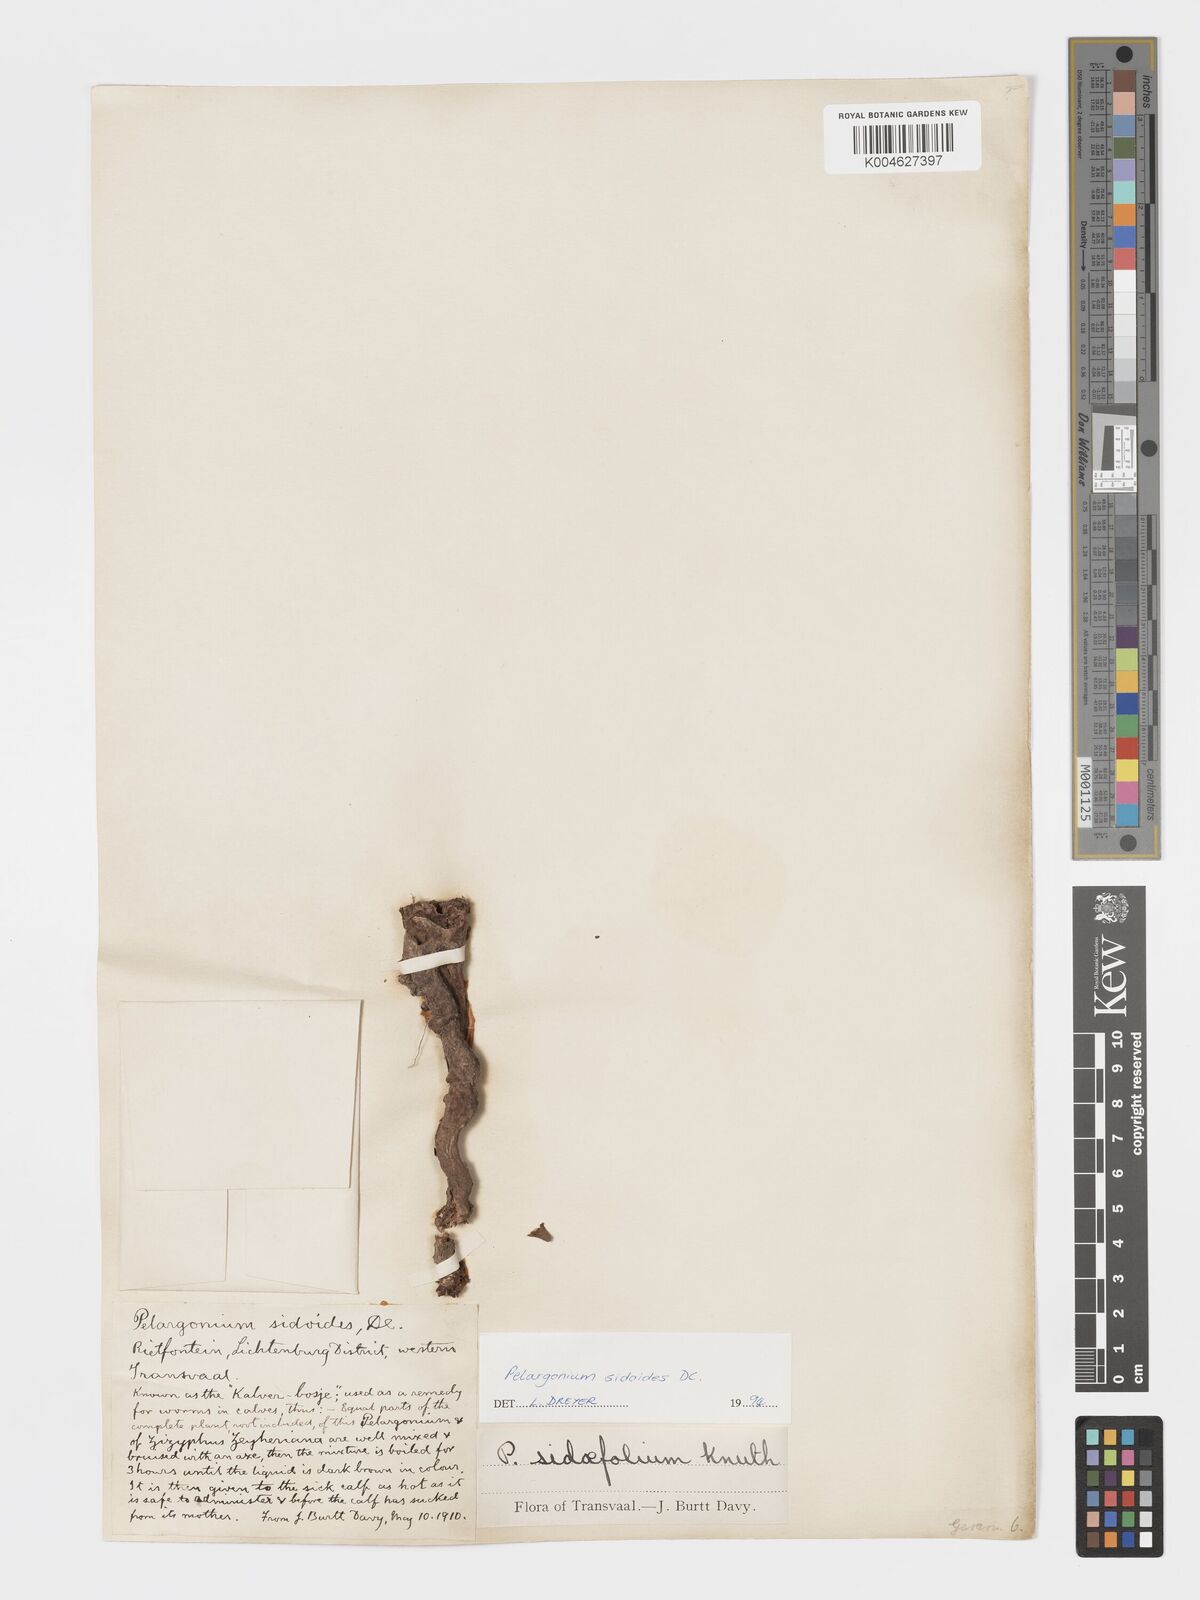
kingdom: Plantae
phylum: Tracheophyta
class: Magnoliopsida
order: Geraniales
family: Geraniaceae
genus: Pelargonium
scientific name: Pelargonium sidoides
